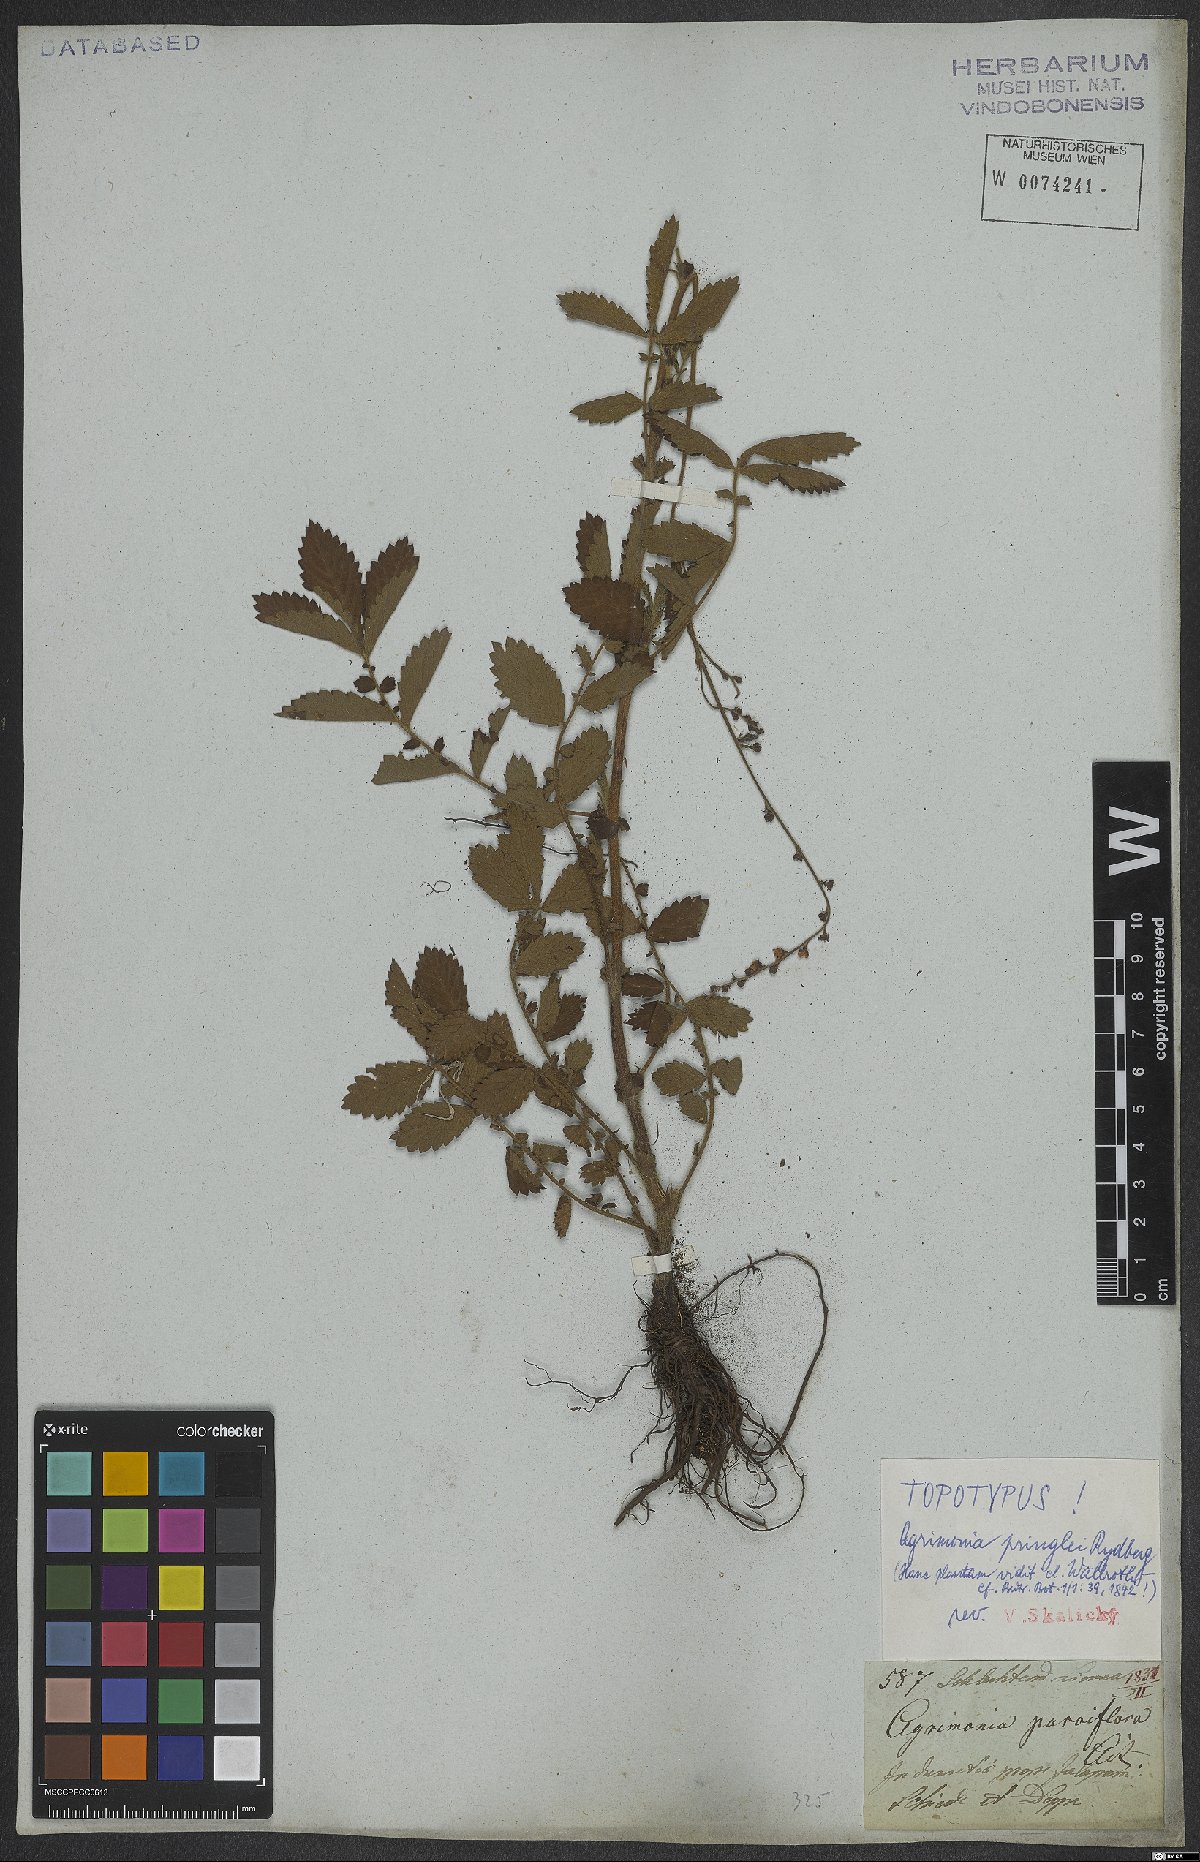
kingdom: Plantae
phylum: Tracheophyta
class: Magnoliopsida
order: Rosales
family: Rosaceae
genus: Agrimonia
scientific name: Agrimonia pringlei
